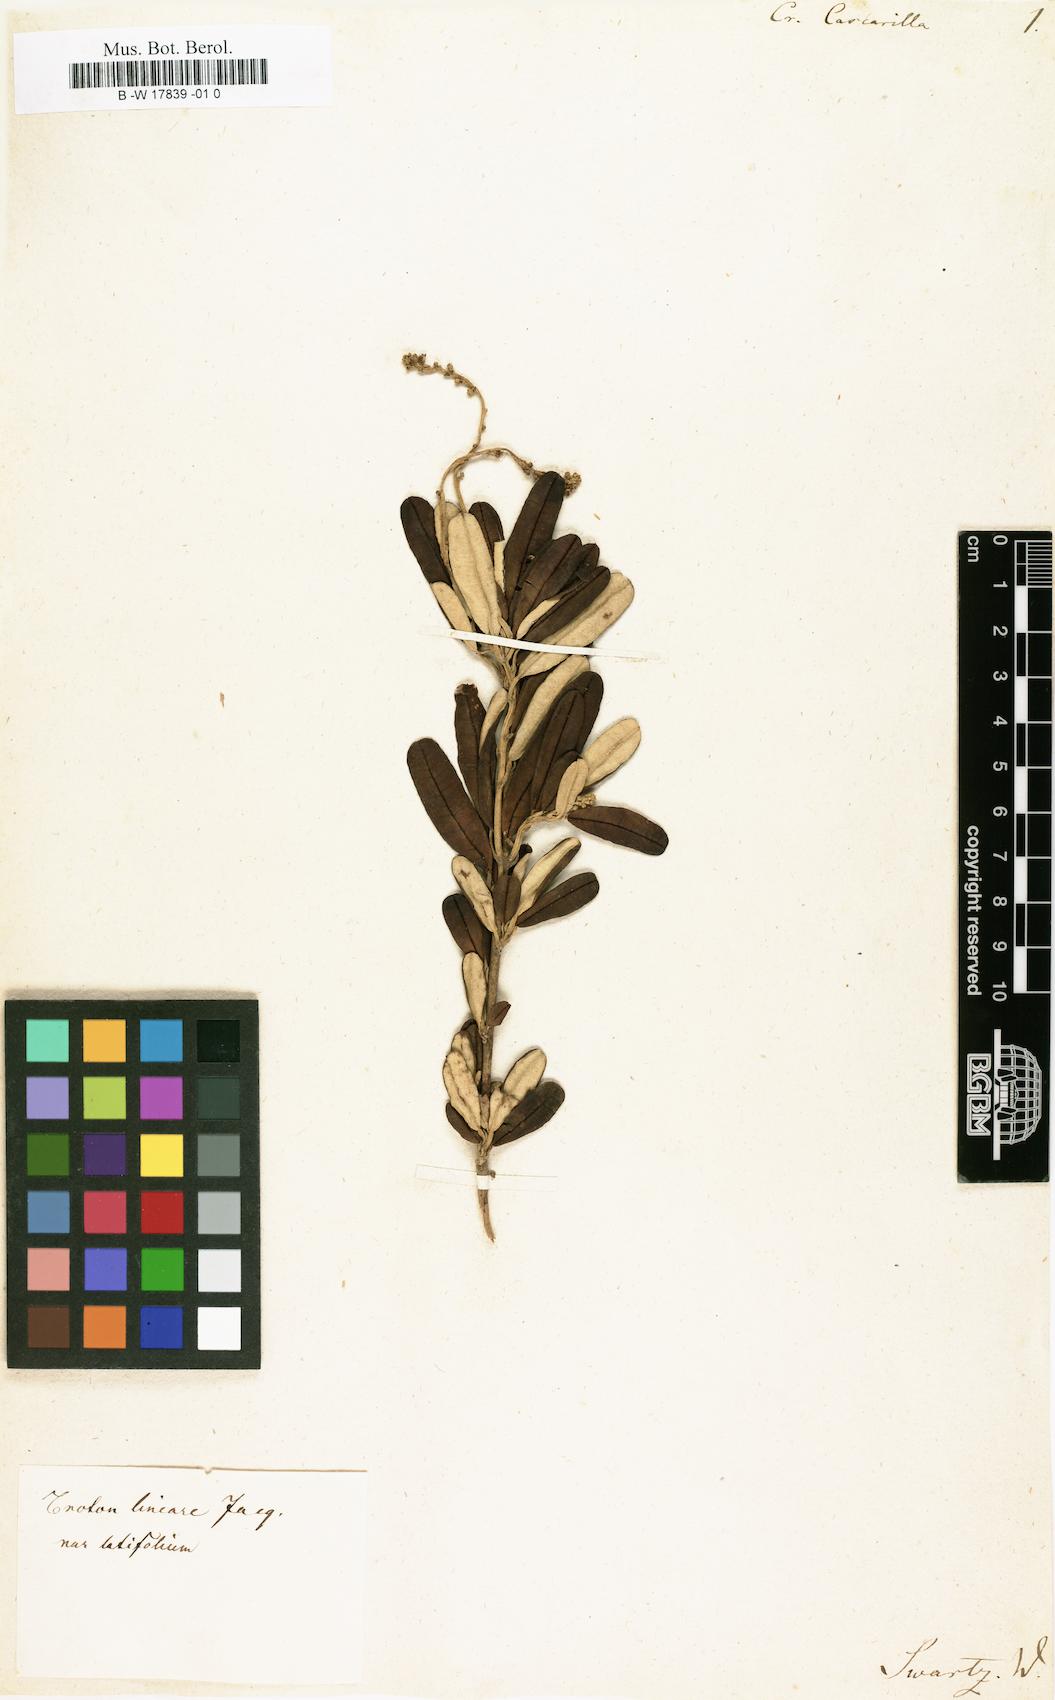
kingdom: Plantae
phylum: Tracheophyta
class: Magnoliopsida
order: Malpighiales
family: Euphorbiaceae
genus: Croton
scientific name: Croton eluteria
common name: Seaside balsam
